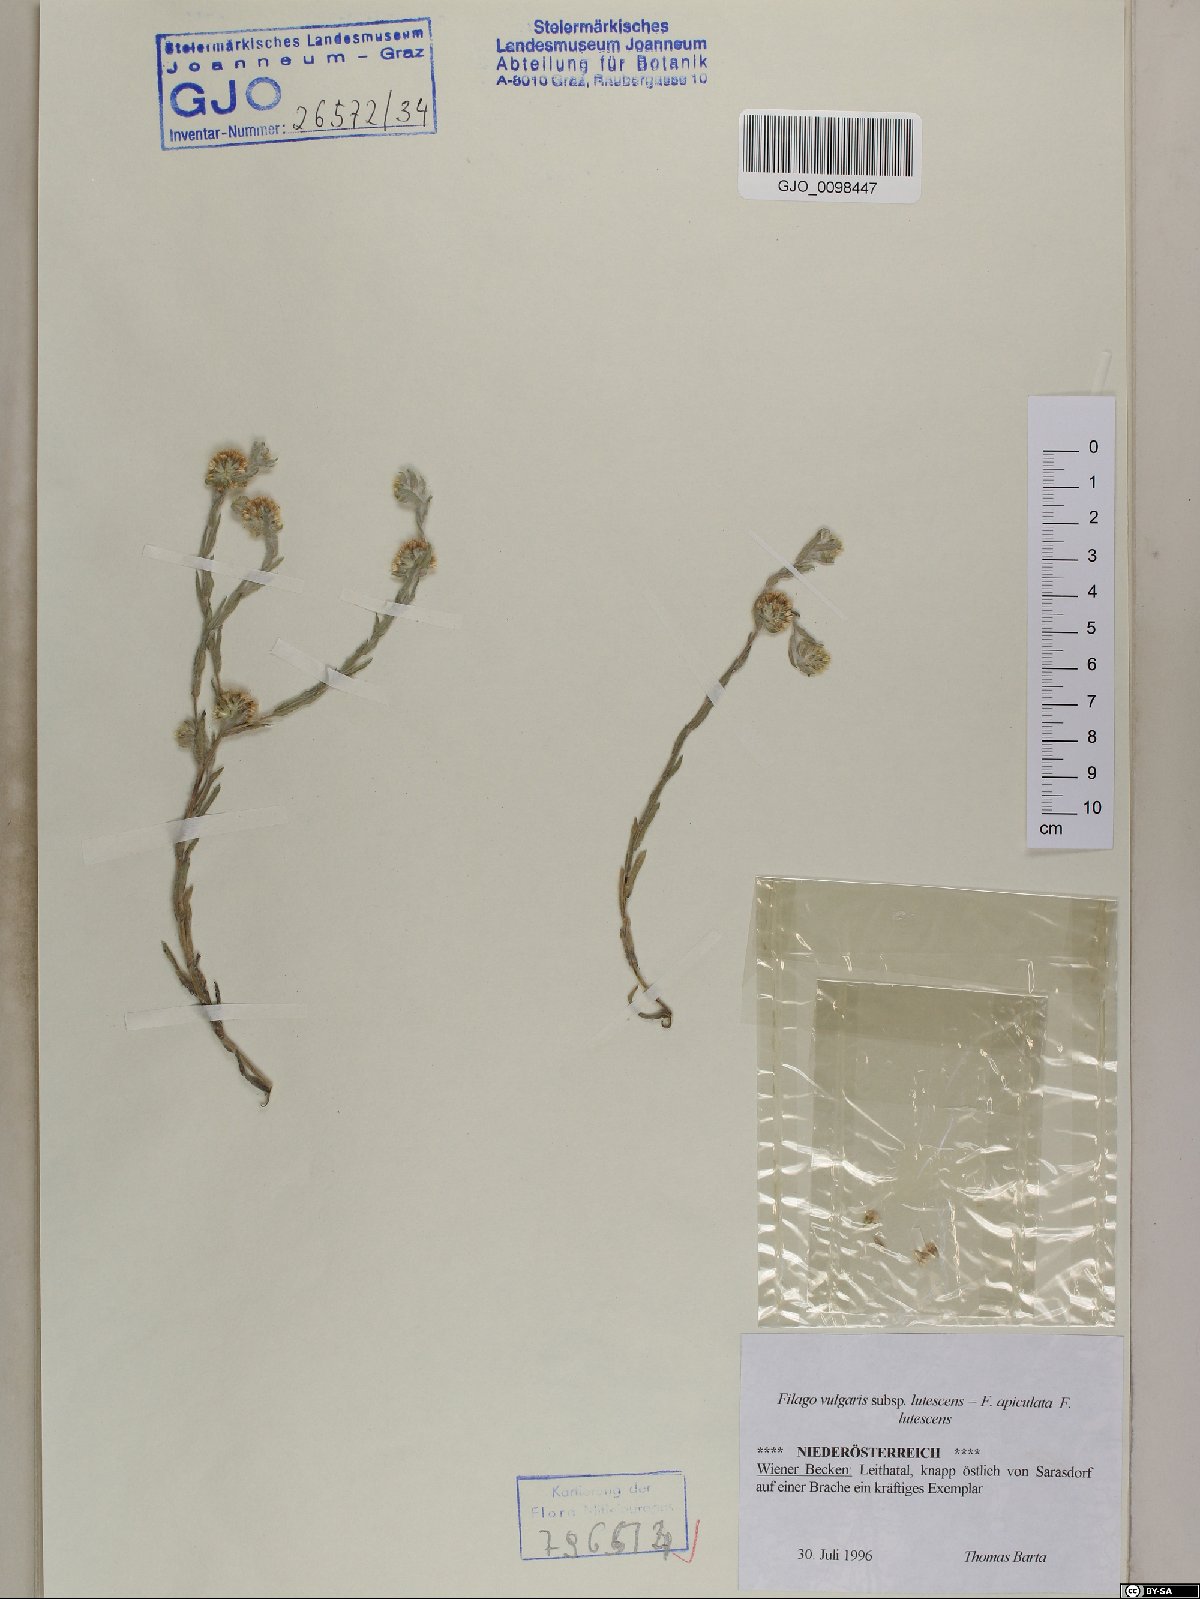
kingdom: Plantae
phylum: Tracheophyta
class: Magnoliopsida
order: Asterales
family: Asteraceae
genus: Filago
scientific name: Filago lutescens
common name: Red-tipped cudweed
